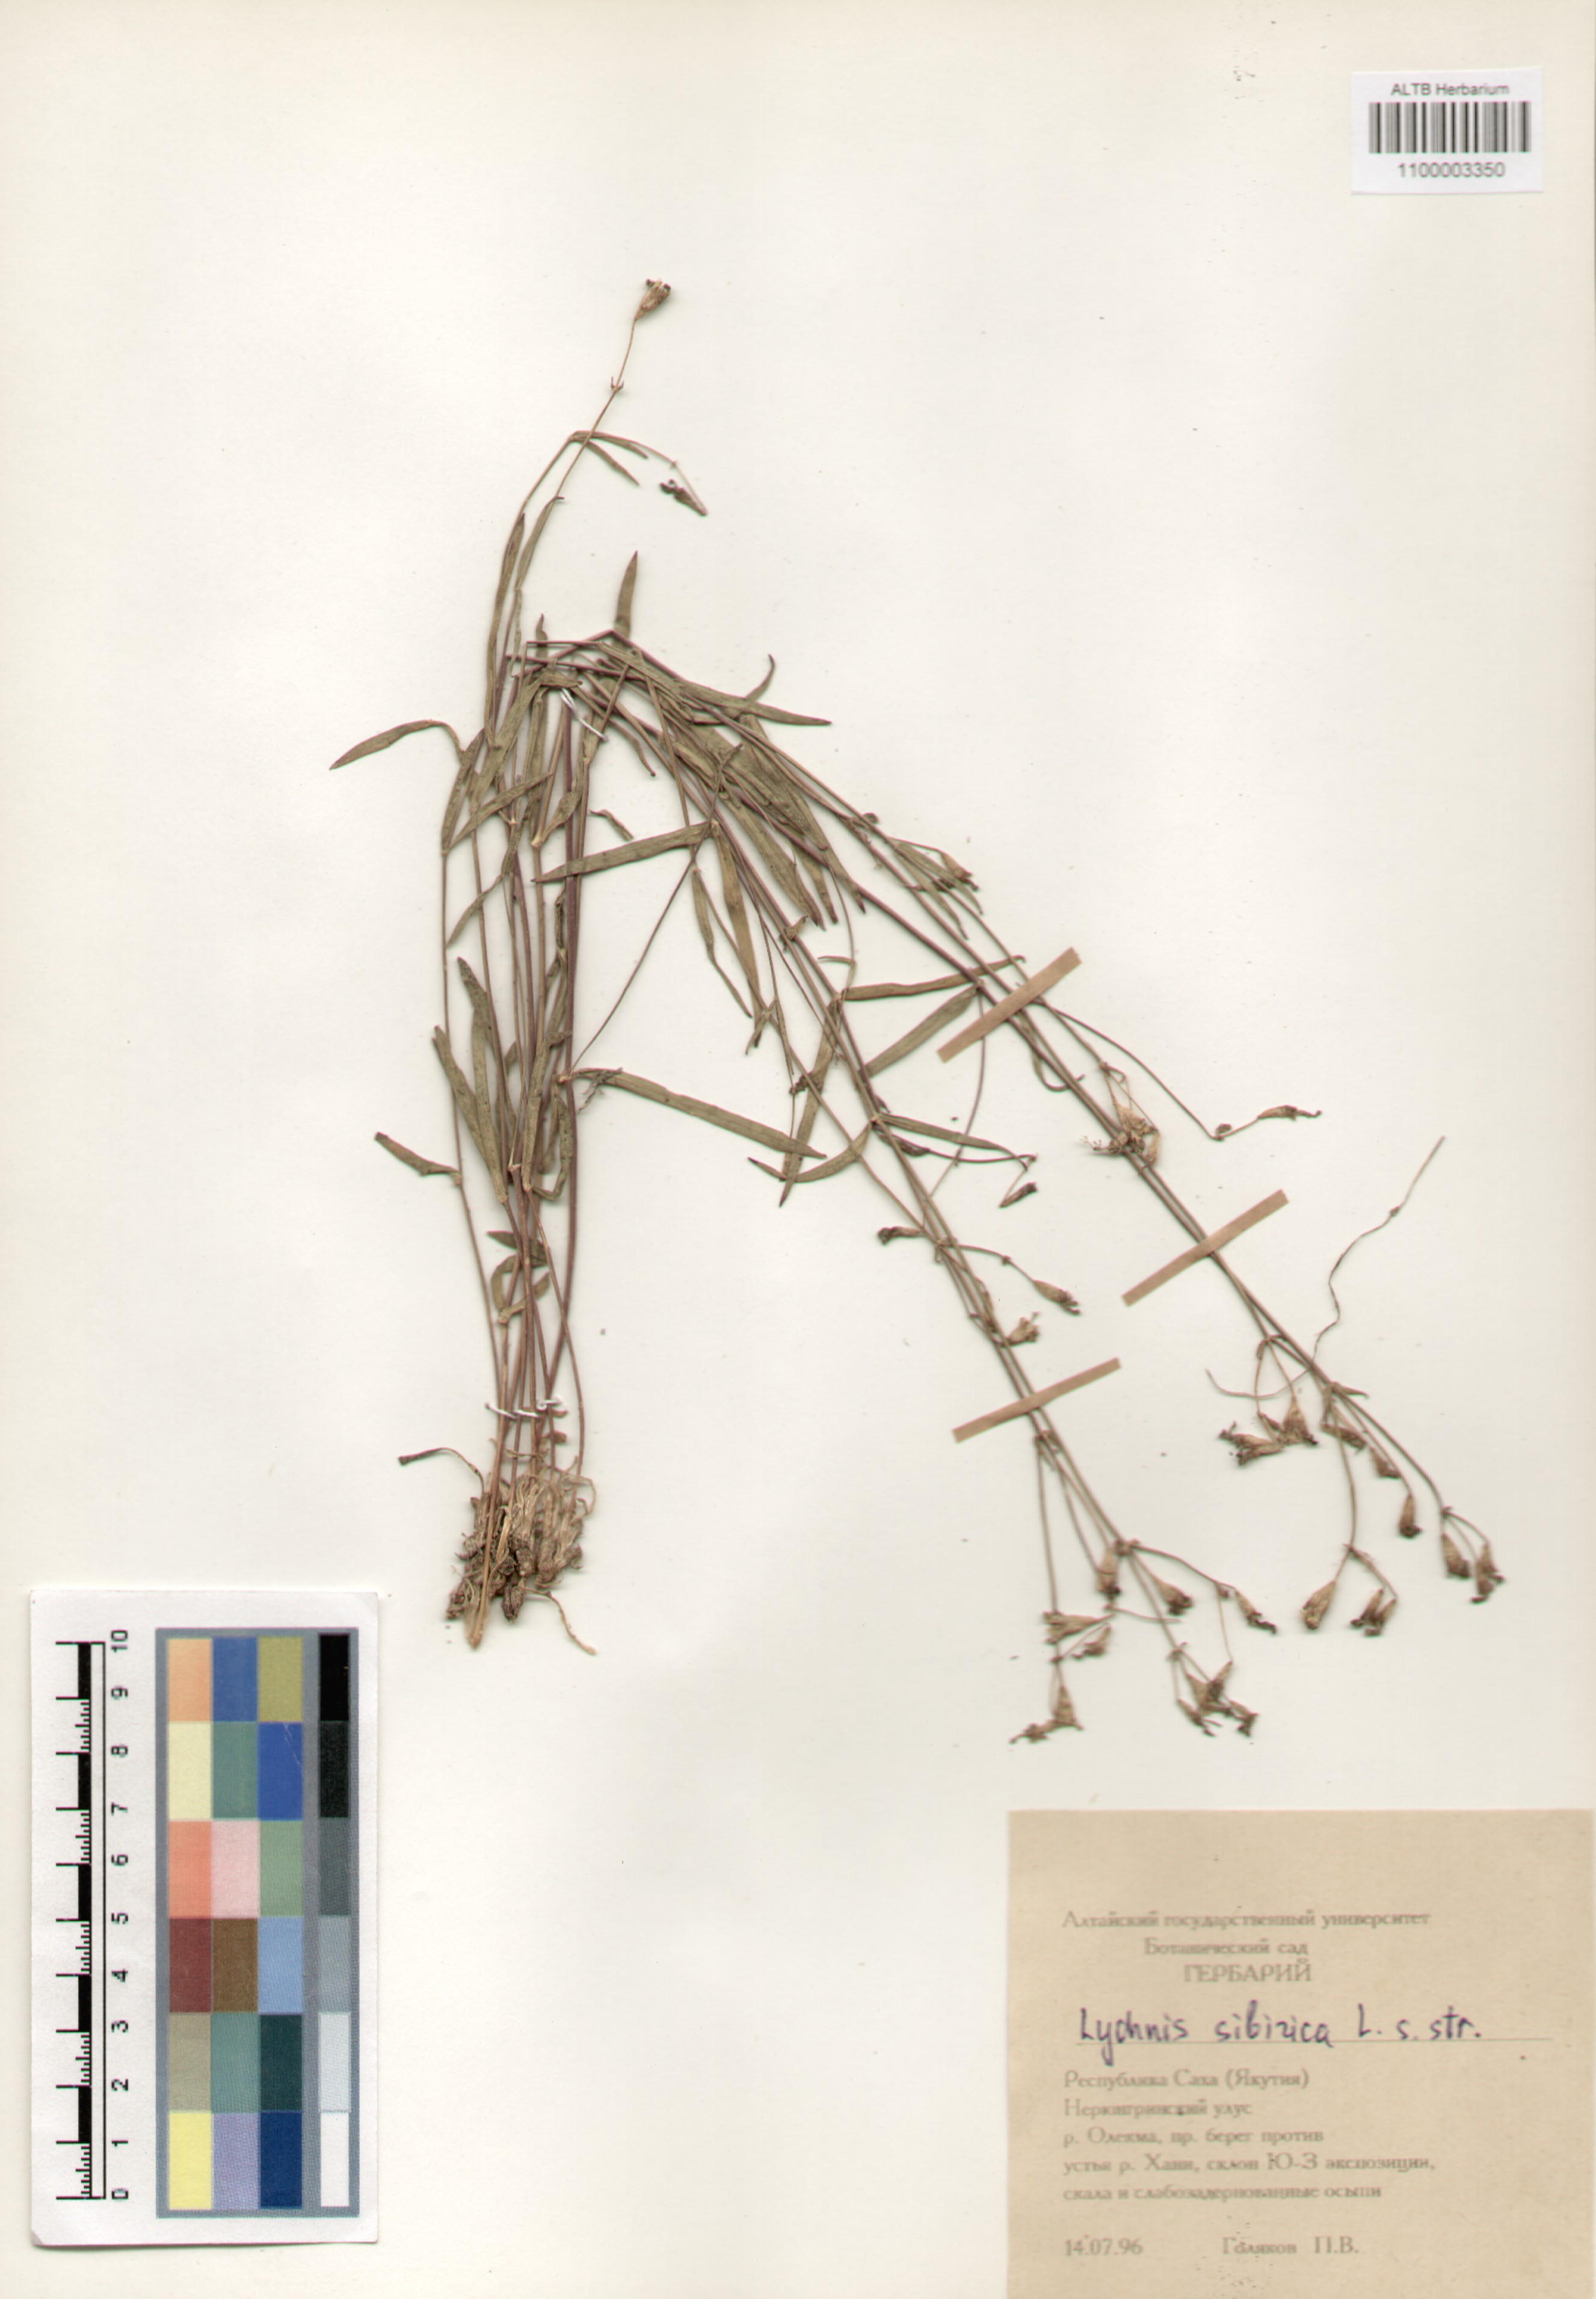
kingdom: Plantae
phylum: Tracheophyta
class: Magnoliopsida
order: Caryophyllales
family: Caryophyllaceae
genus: Silene
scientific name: Silene orientalimongolica
